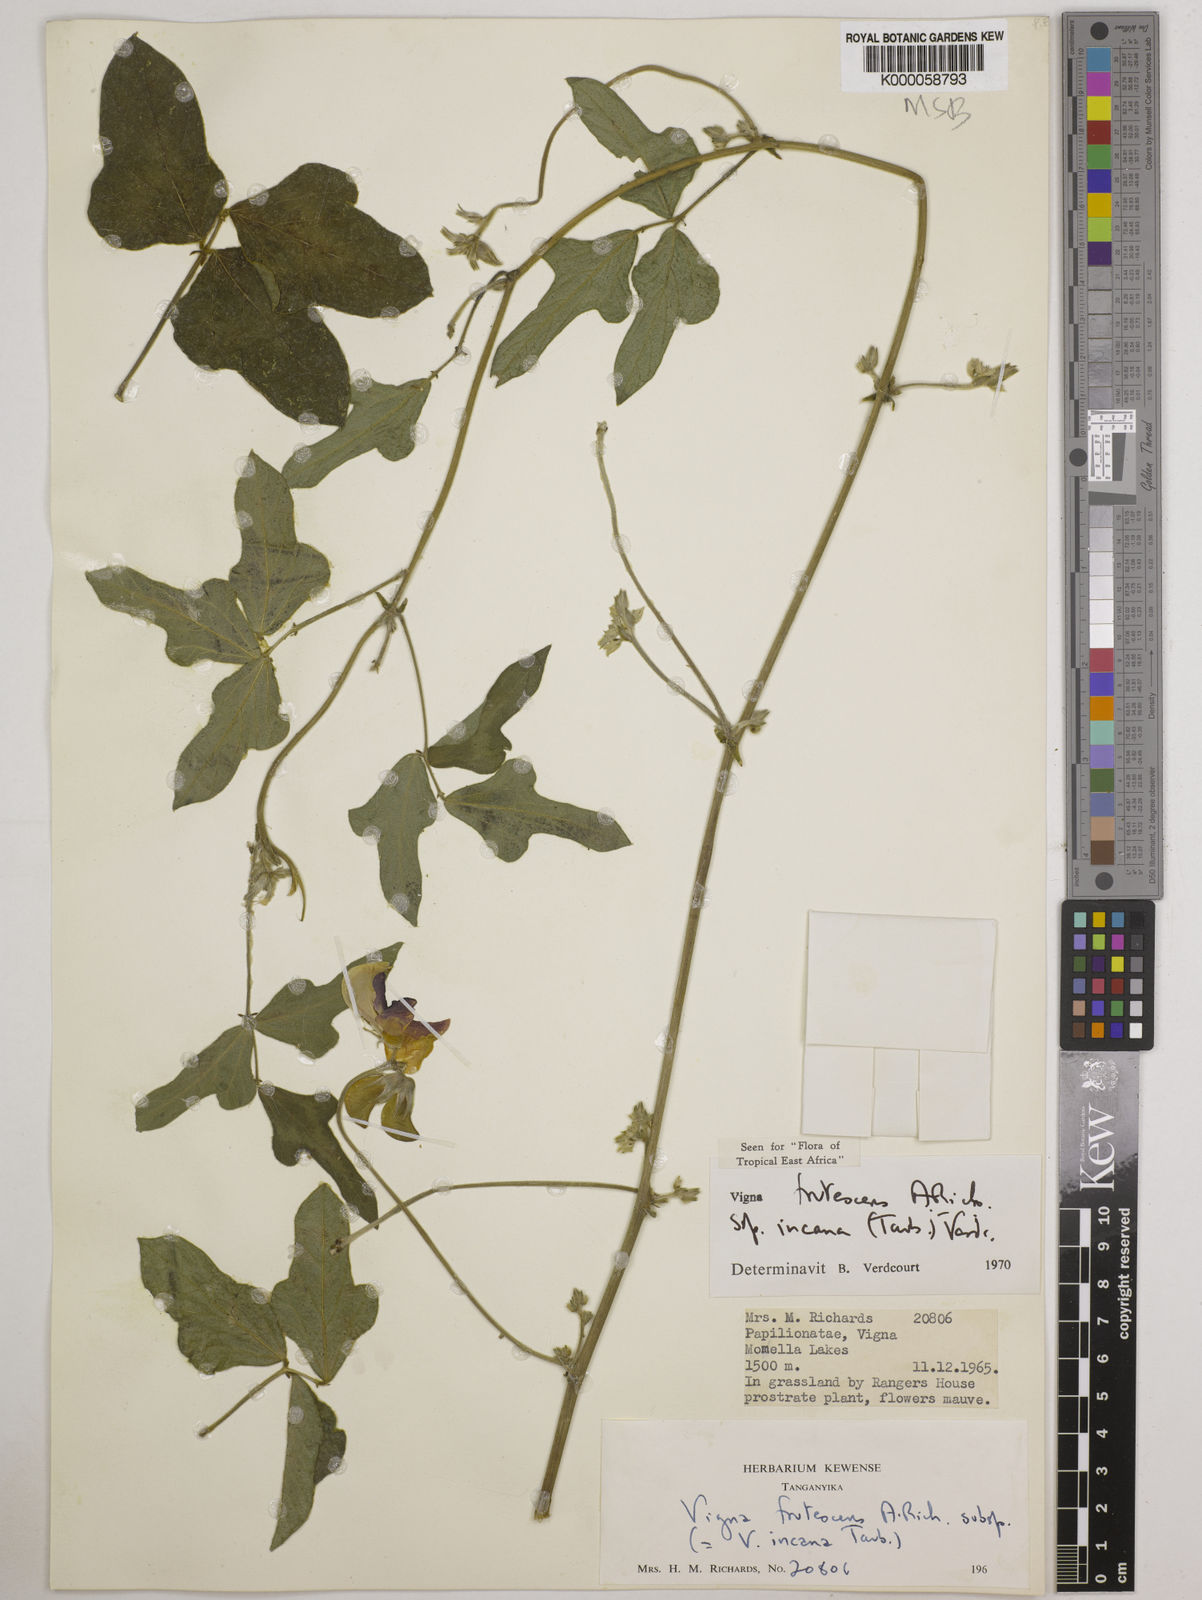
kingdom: Plantae
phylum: Tracheophyta
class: Magnoliopsida
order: Fabales
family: Fabaceae
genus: Vigna
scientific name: Vigna
